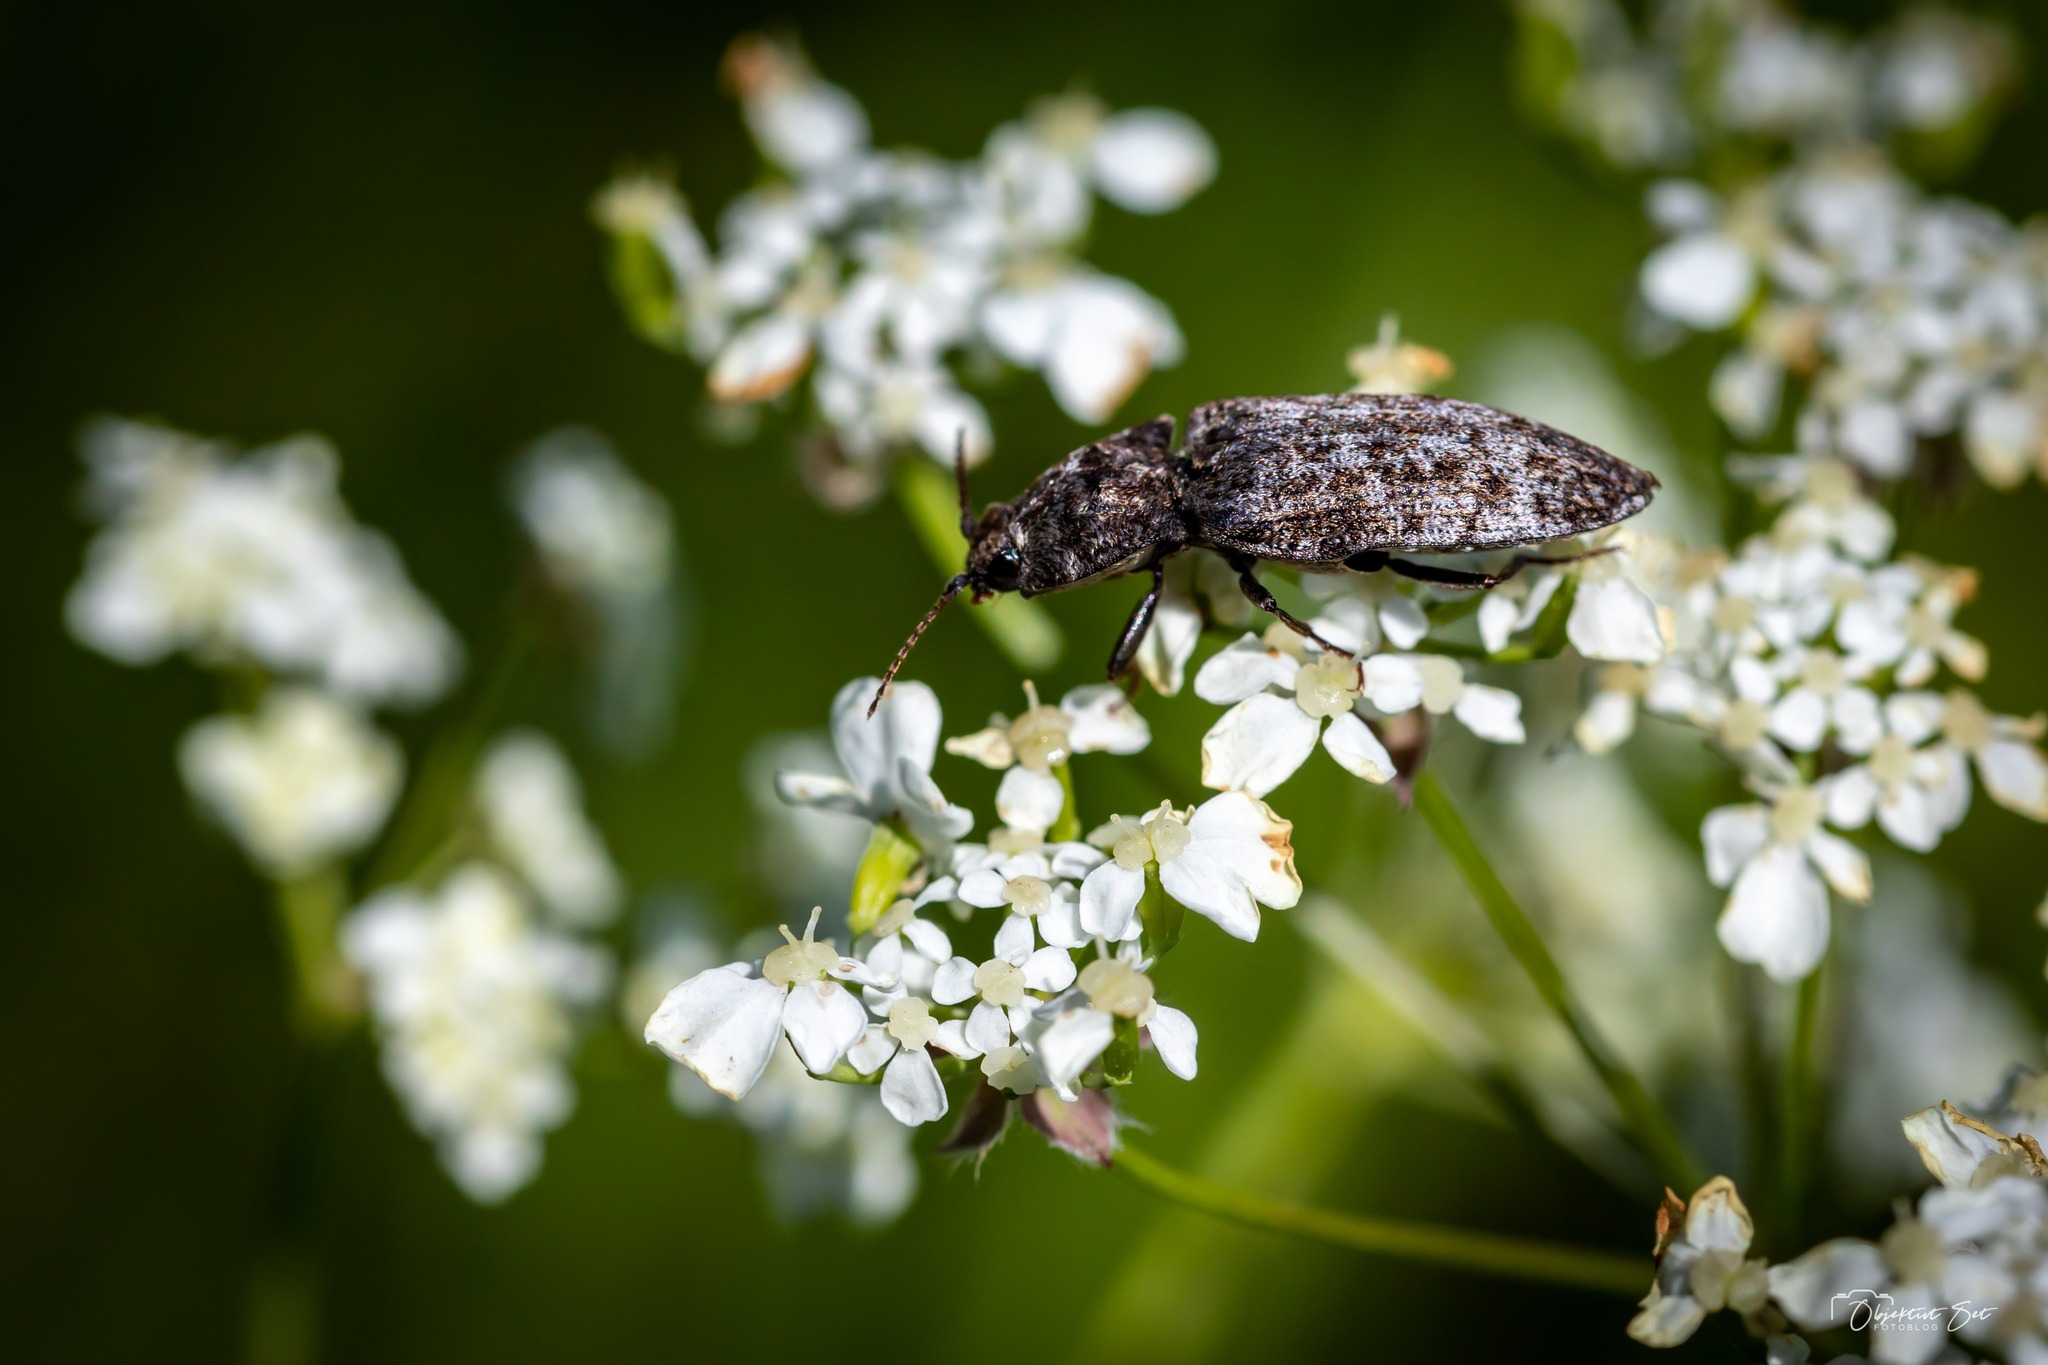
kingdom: Animalia
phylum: Arthropoda
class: Insecta
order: Coleoptera
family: Elateridae
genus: Agrypnus
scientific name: Agrypnus murinus
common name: Musegrå smælder
